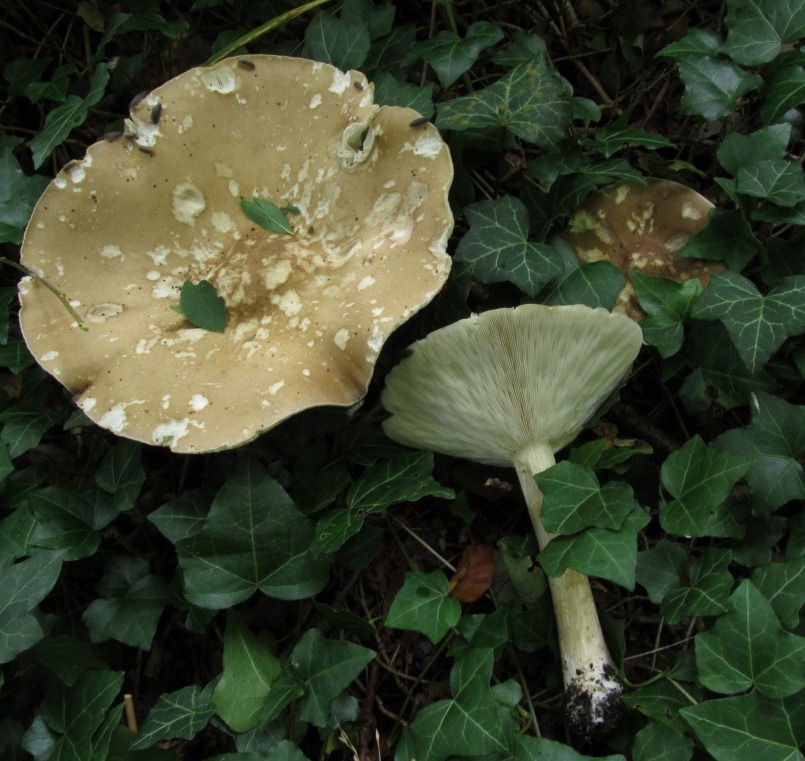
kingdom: Fungi
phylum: Basidiomycota
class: Agaricomycetes
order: Agaricales
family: Tricholomataceae
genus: Melanoleuca
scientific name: Melanoleuca grammopodia
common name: stribestokket munkehat
